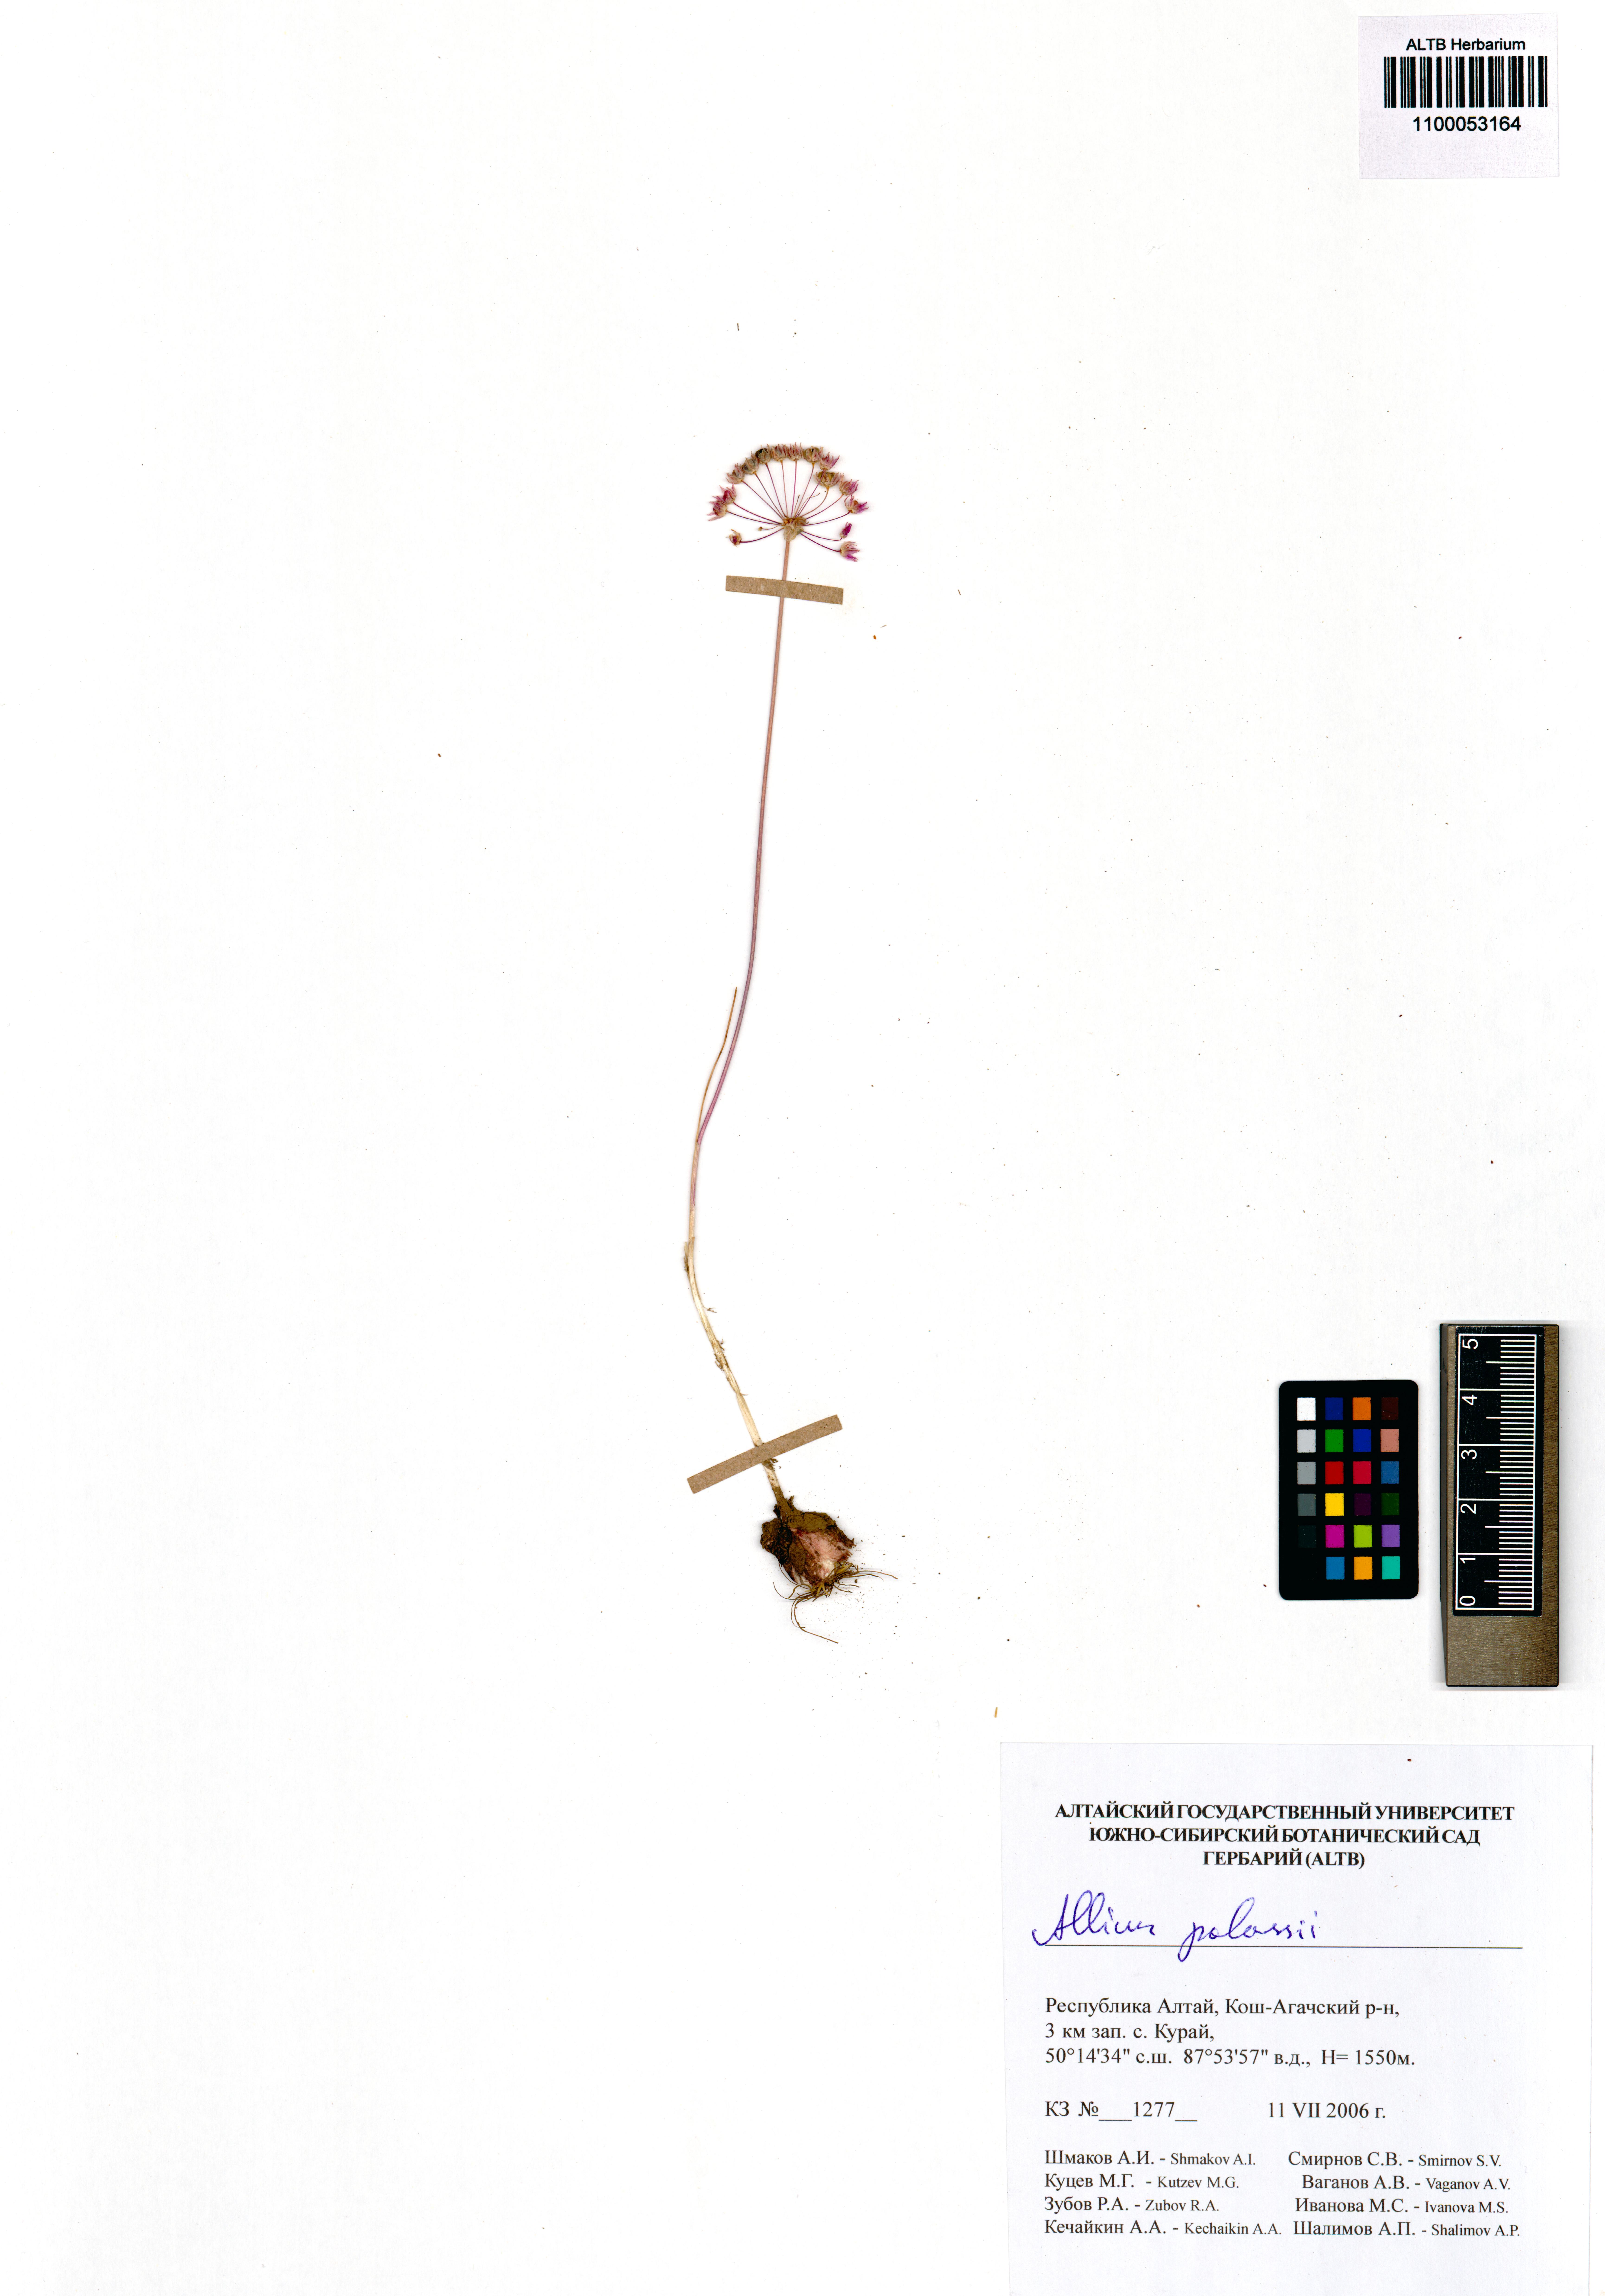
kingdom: Plantae
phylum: Tracheophyta
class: Liliopsida
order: Asparagales
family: Amaryllidaceae
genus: Allium
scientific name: Allium pallasii
